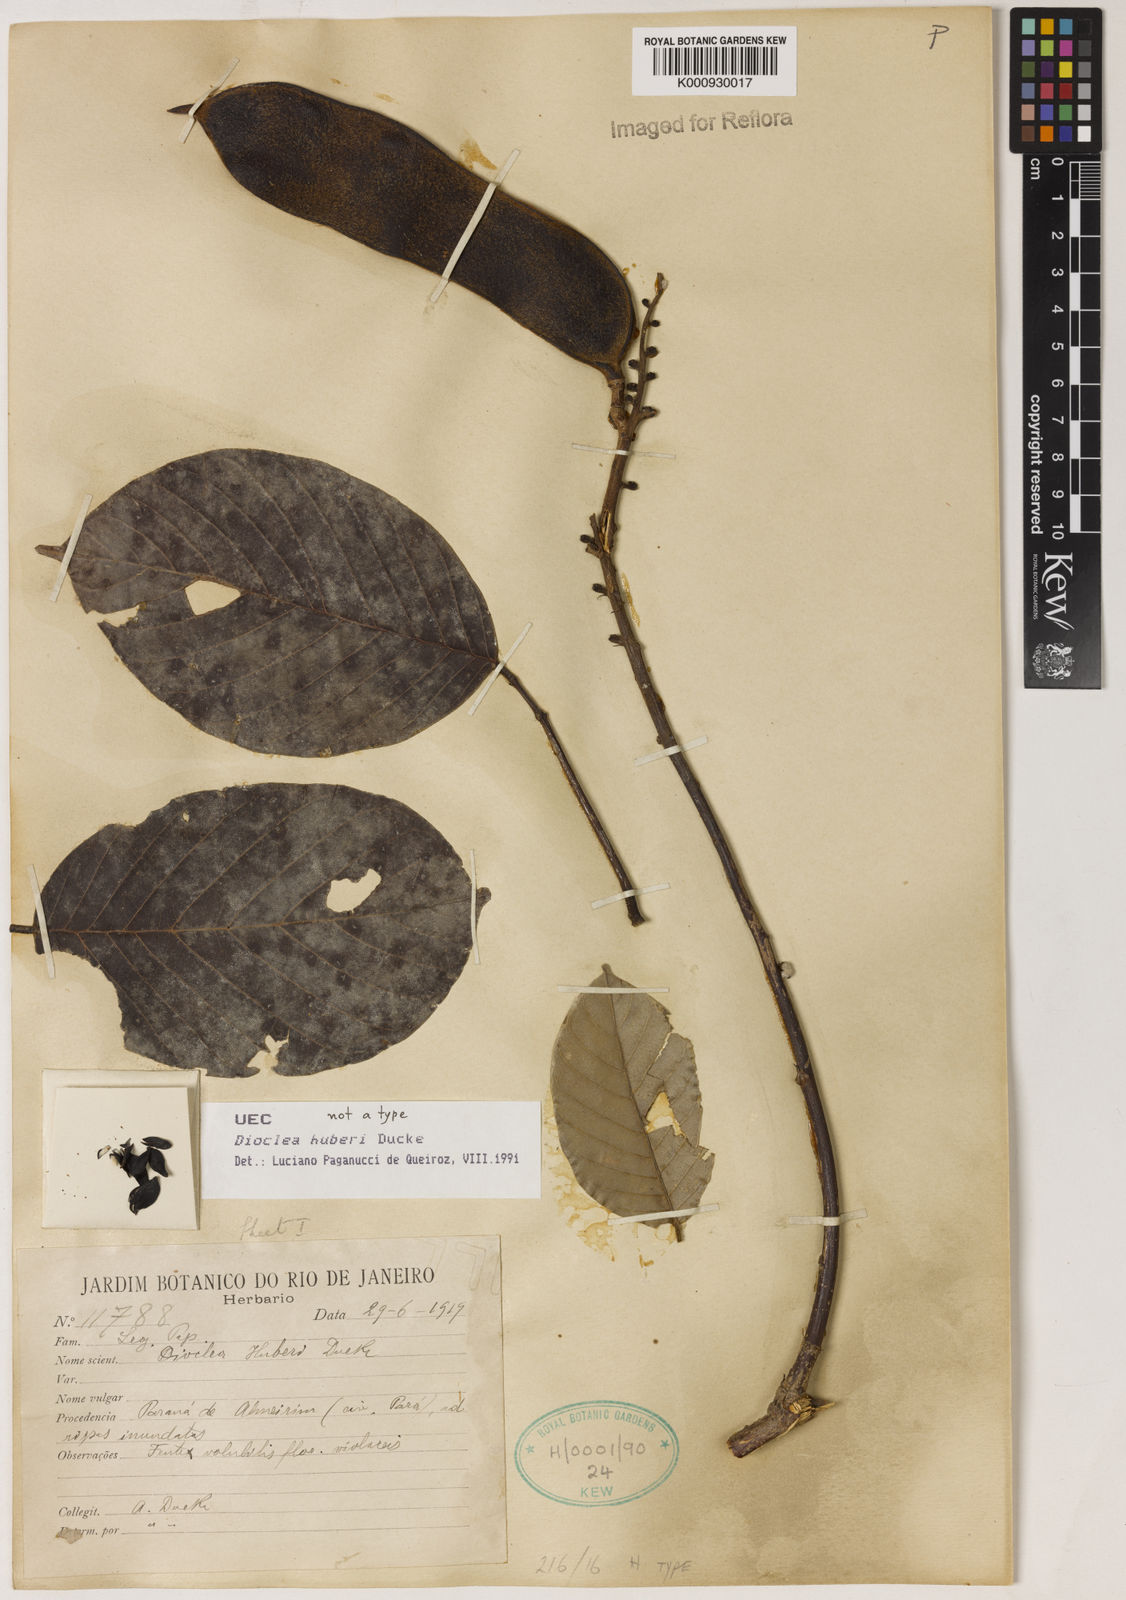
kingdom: Plantae
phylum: Tracheophyta
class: Magnoliopsida
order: Fabales
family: Fabaceae
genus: Macropsychanthus
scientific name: Macropsychanthus huberi
